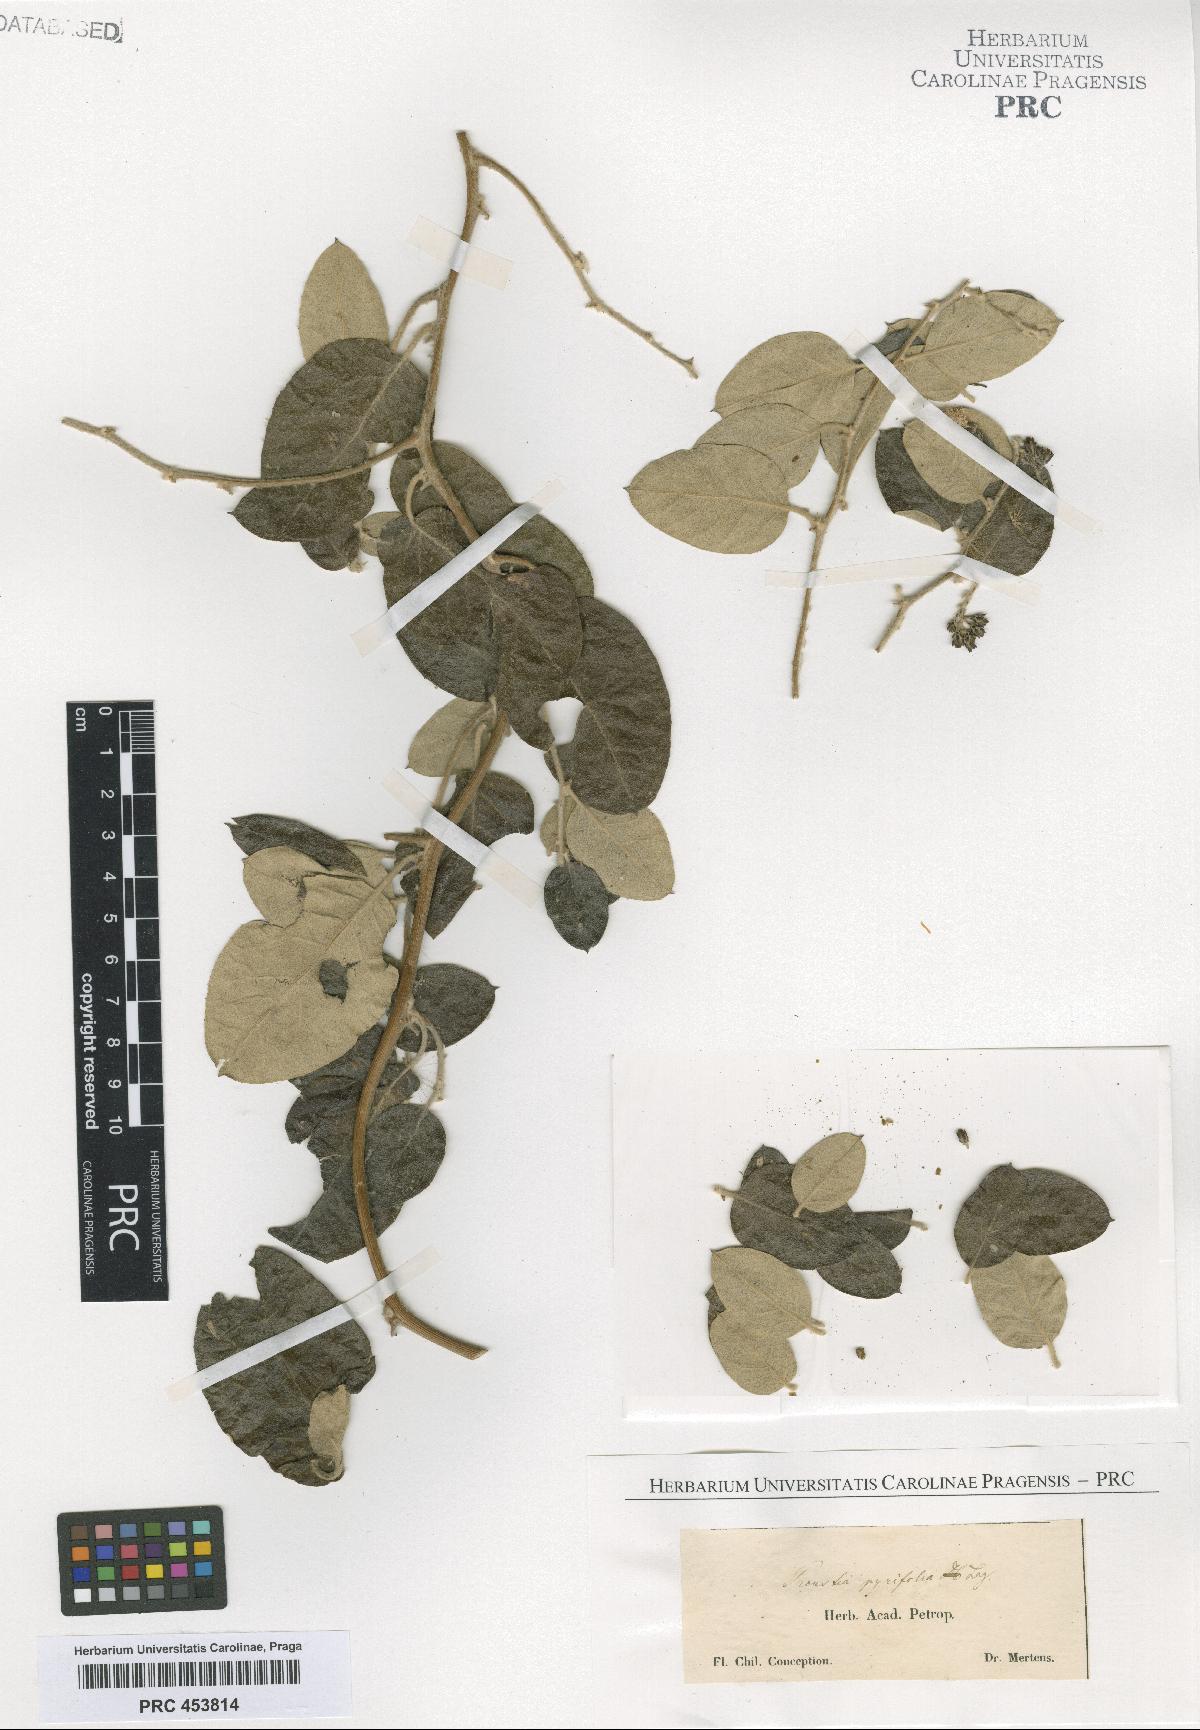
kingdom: Plantae
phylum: Tracheophyta
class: Magnoliopsida
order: Asterales
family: Asteraceae
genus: Proustia
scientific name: Proustia
